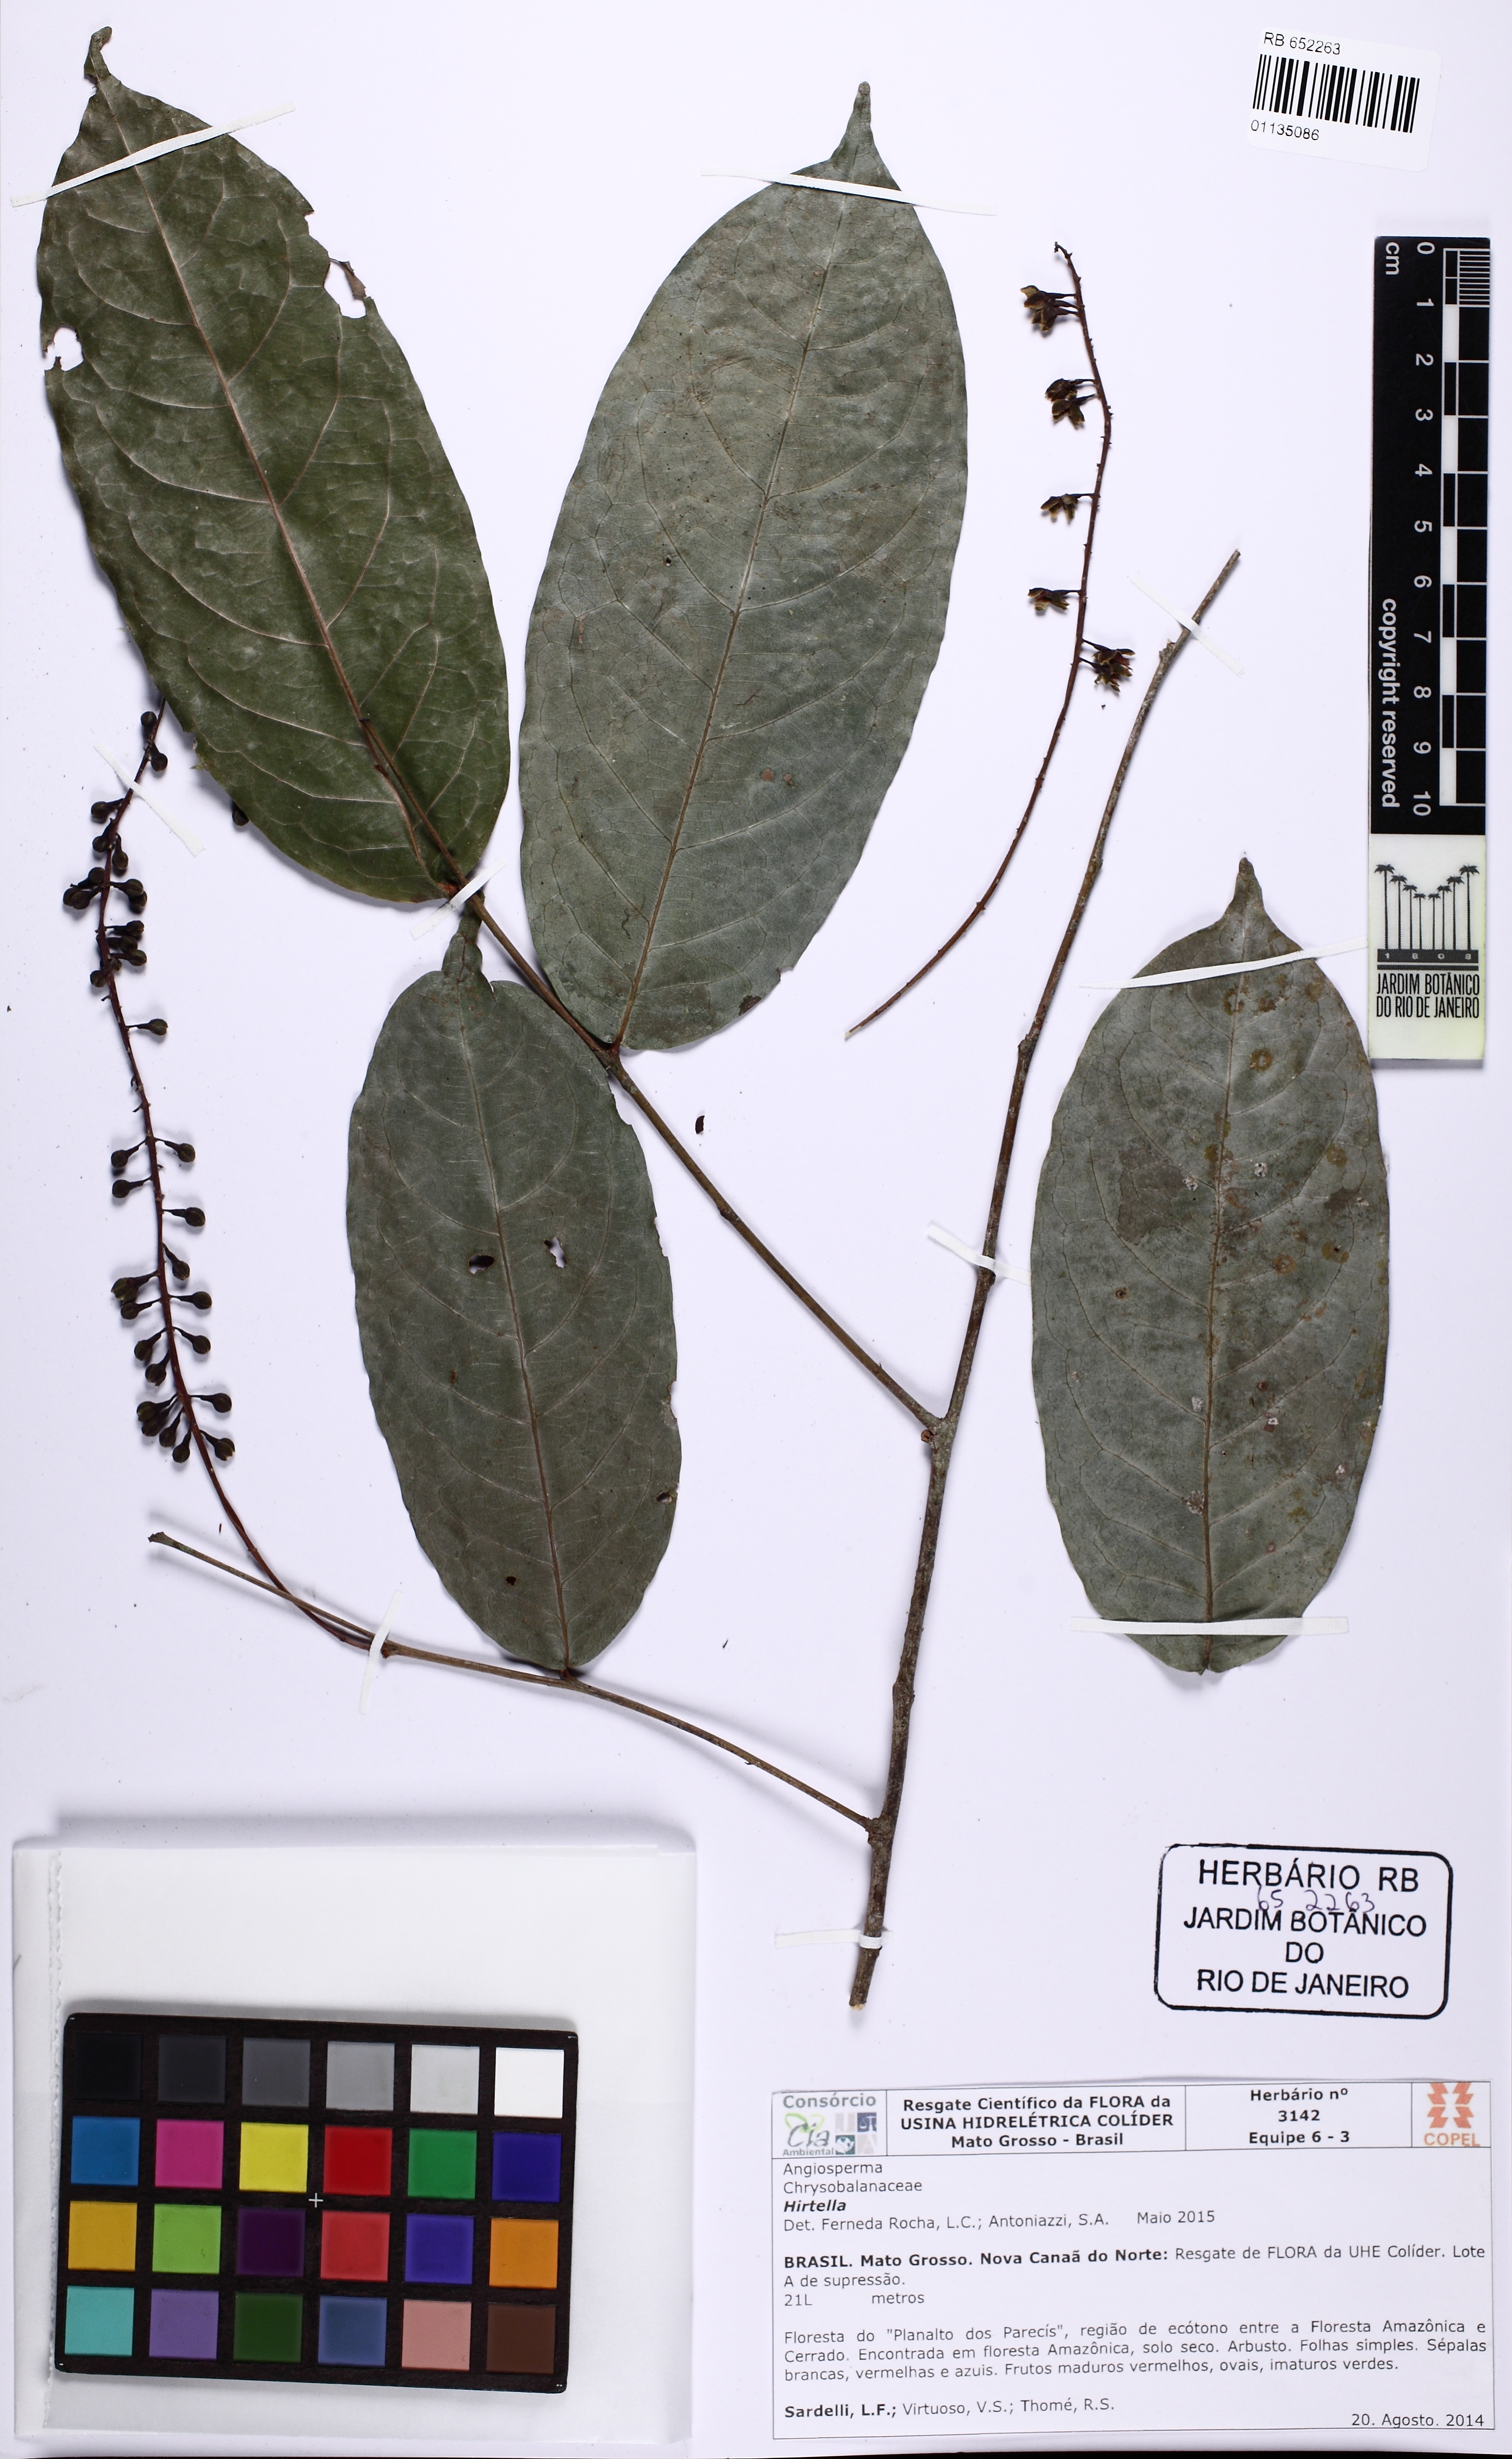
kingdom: Plantae
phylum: Tracheophyta
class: Magnoliopsida
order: Malpighiales
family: Chrysobalanaceae
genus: Hirtella
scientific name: Hirtella racemosa
